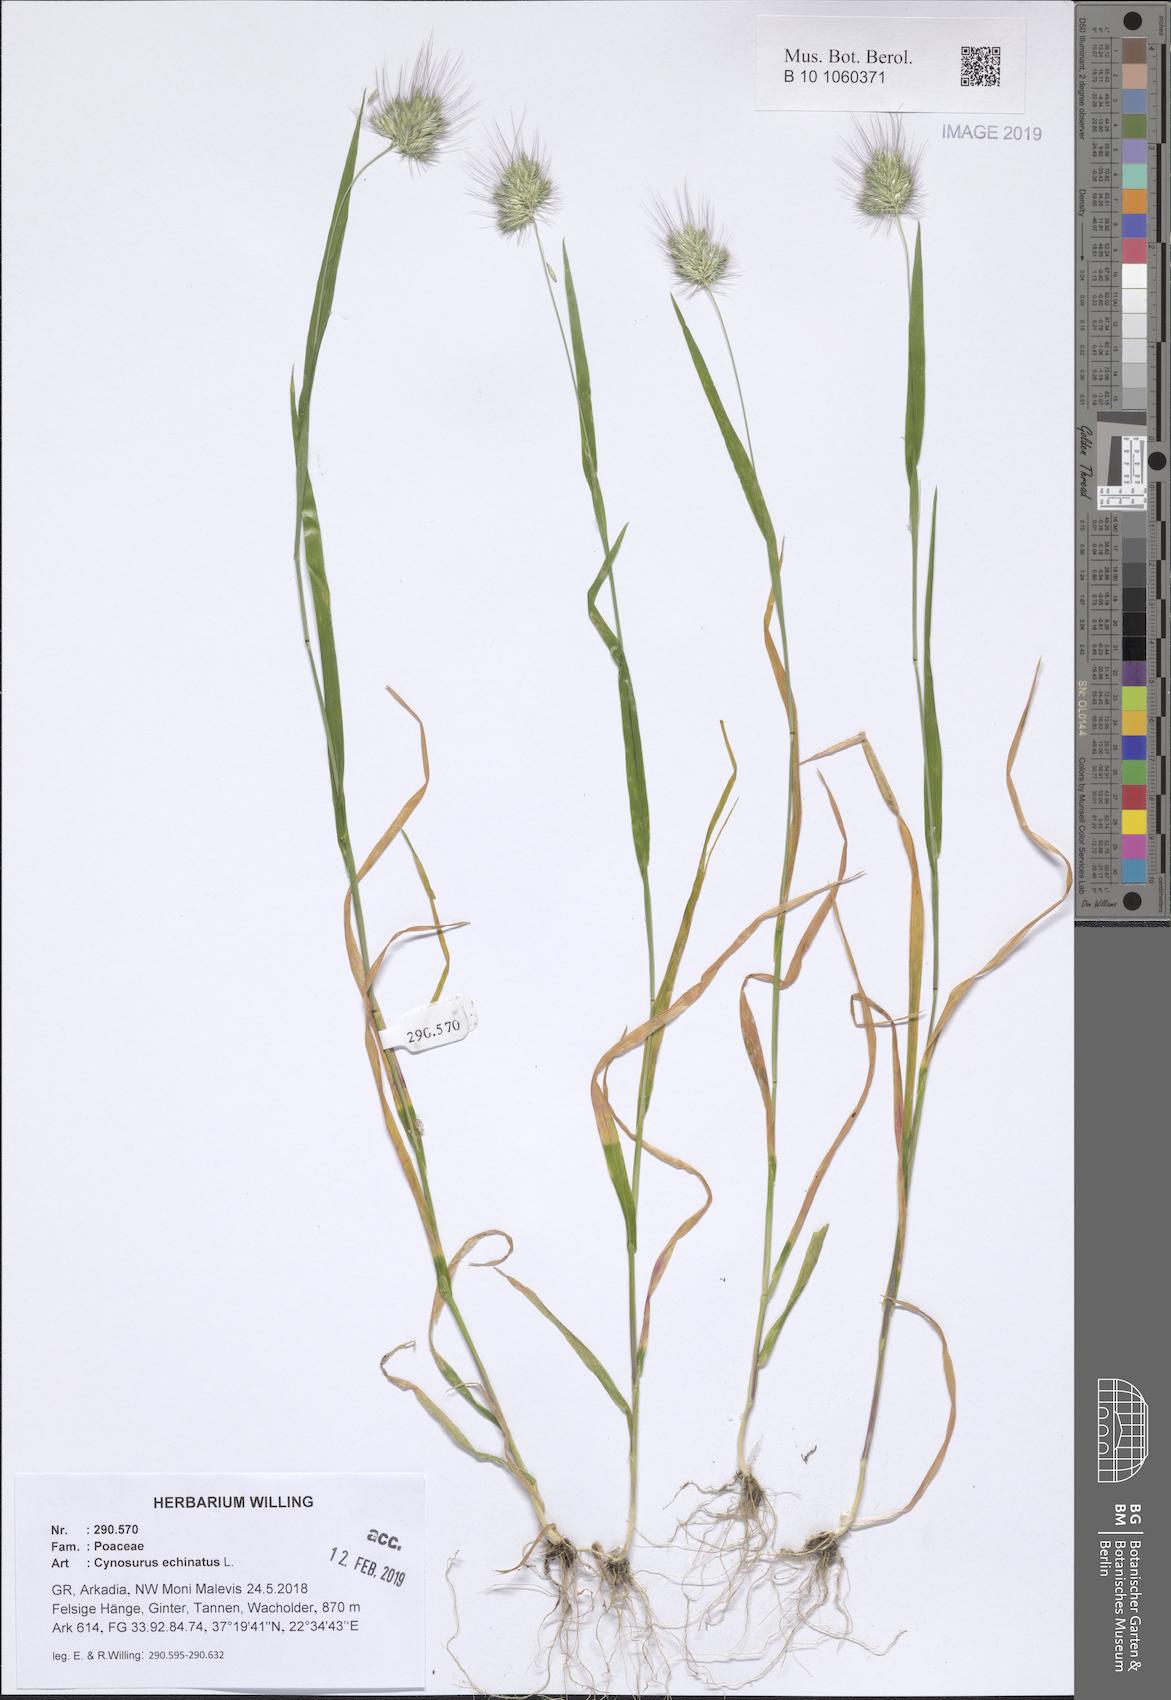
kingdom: Plantae
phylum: Tracheophyta
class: Liliopsida
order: Poales
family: Poaceae
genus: Cynosurus
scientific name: Cynosurus echinatus
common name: Rough dog's-tail
